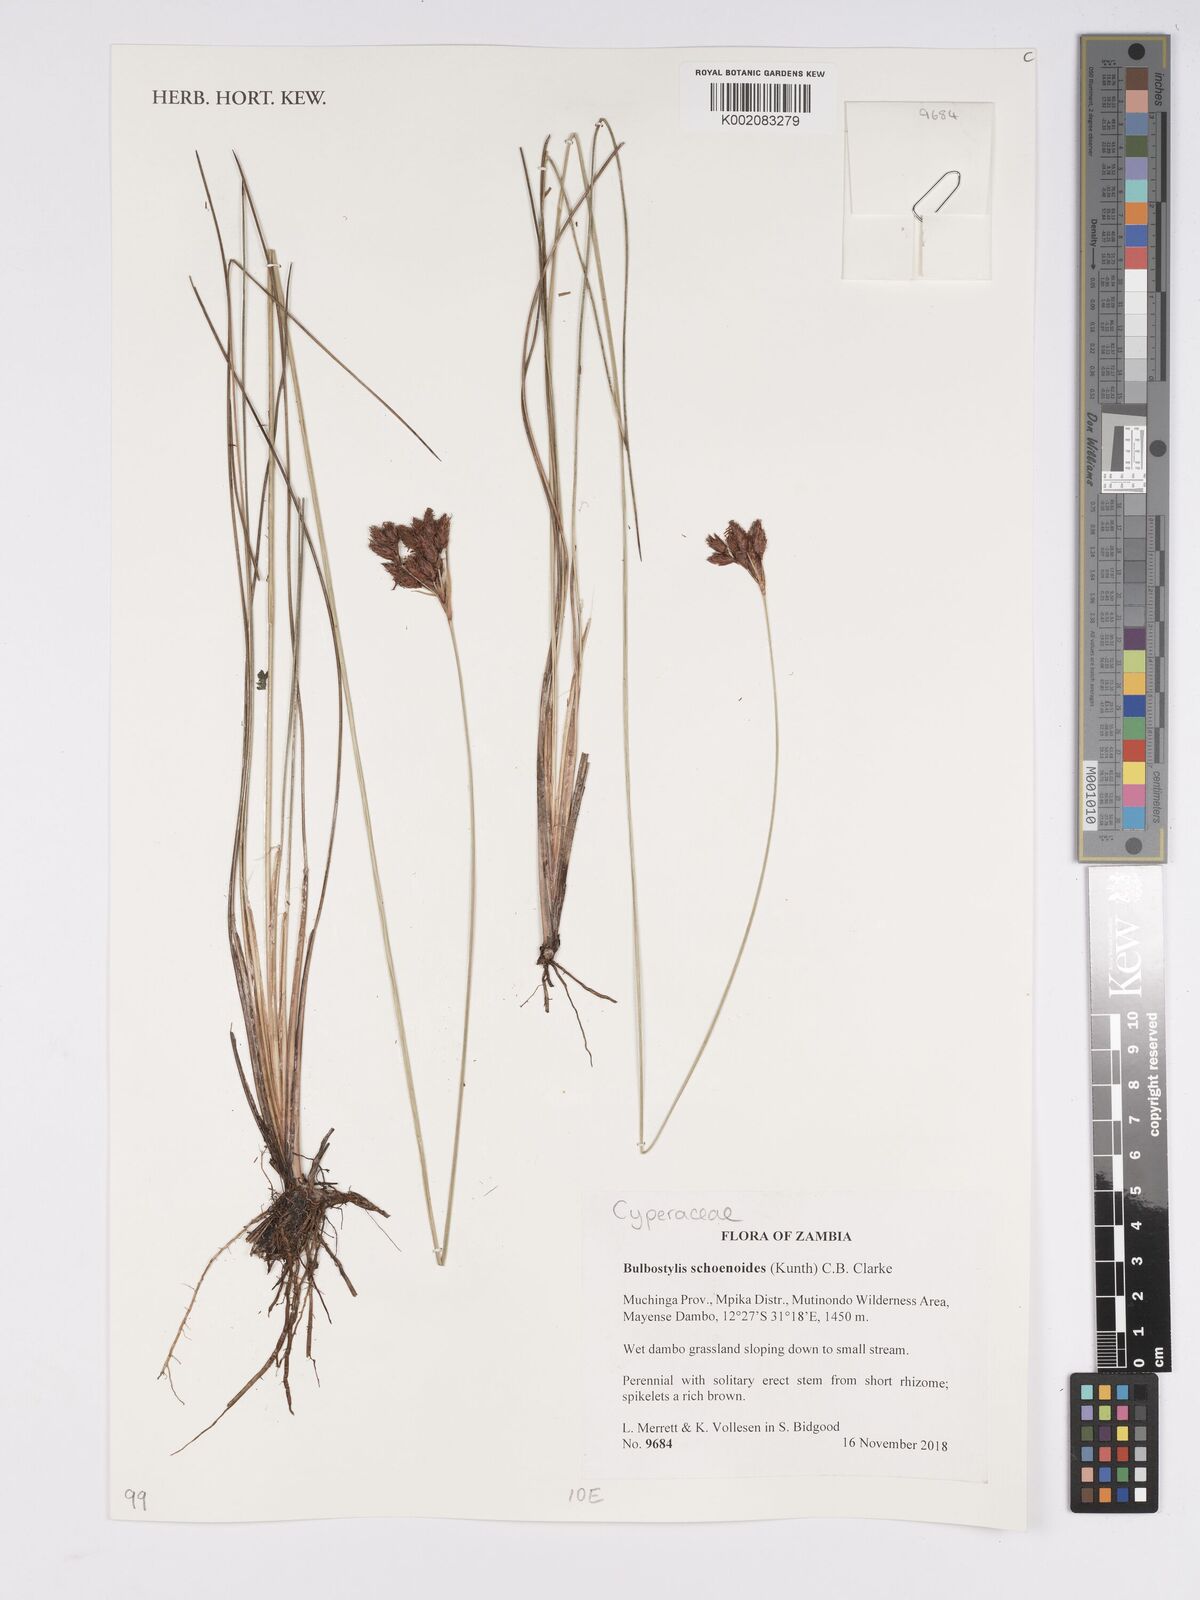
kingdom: Plantae
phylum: Tracheophyta
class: Liliopsida
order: Poales
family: Cyperaceae
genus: Bulbostylis
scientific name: Bulbostylis schoenoides
